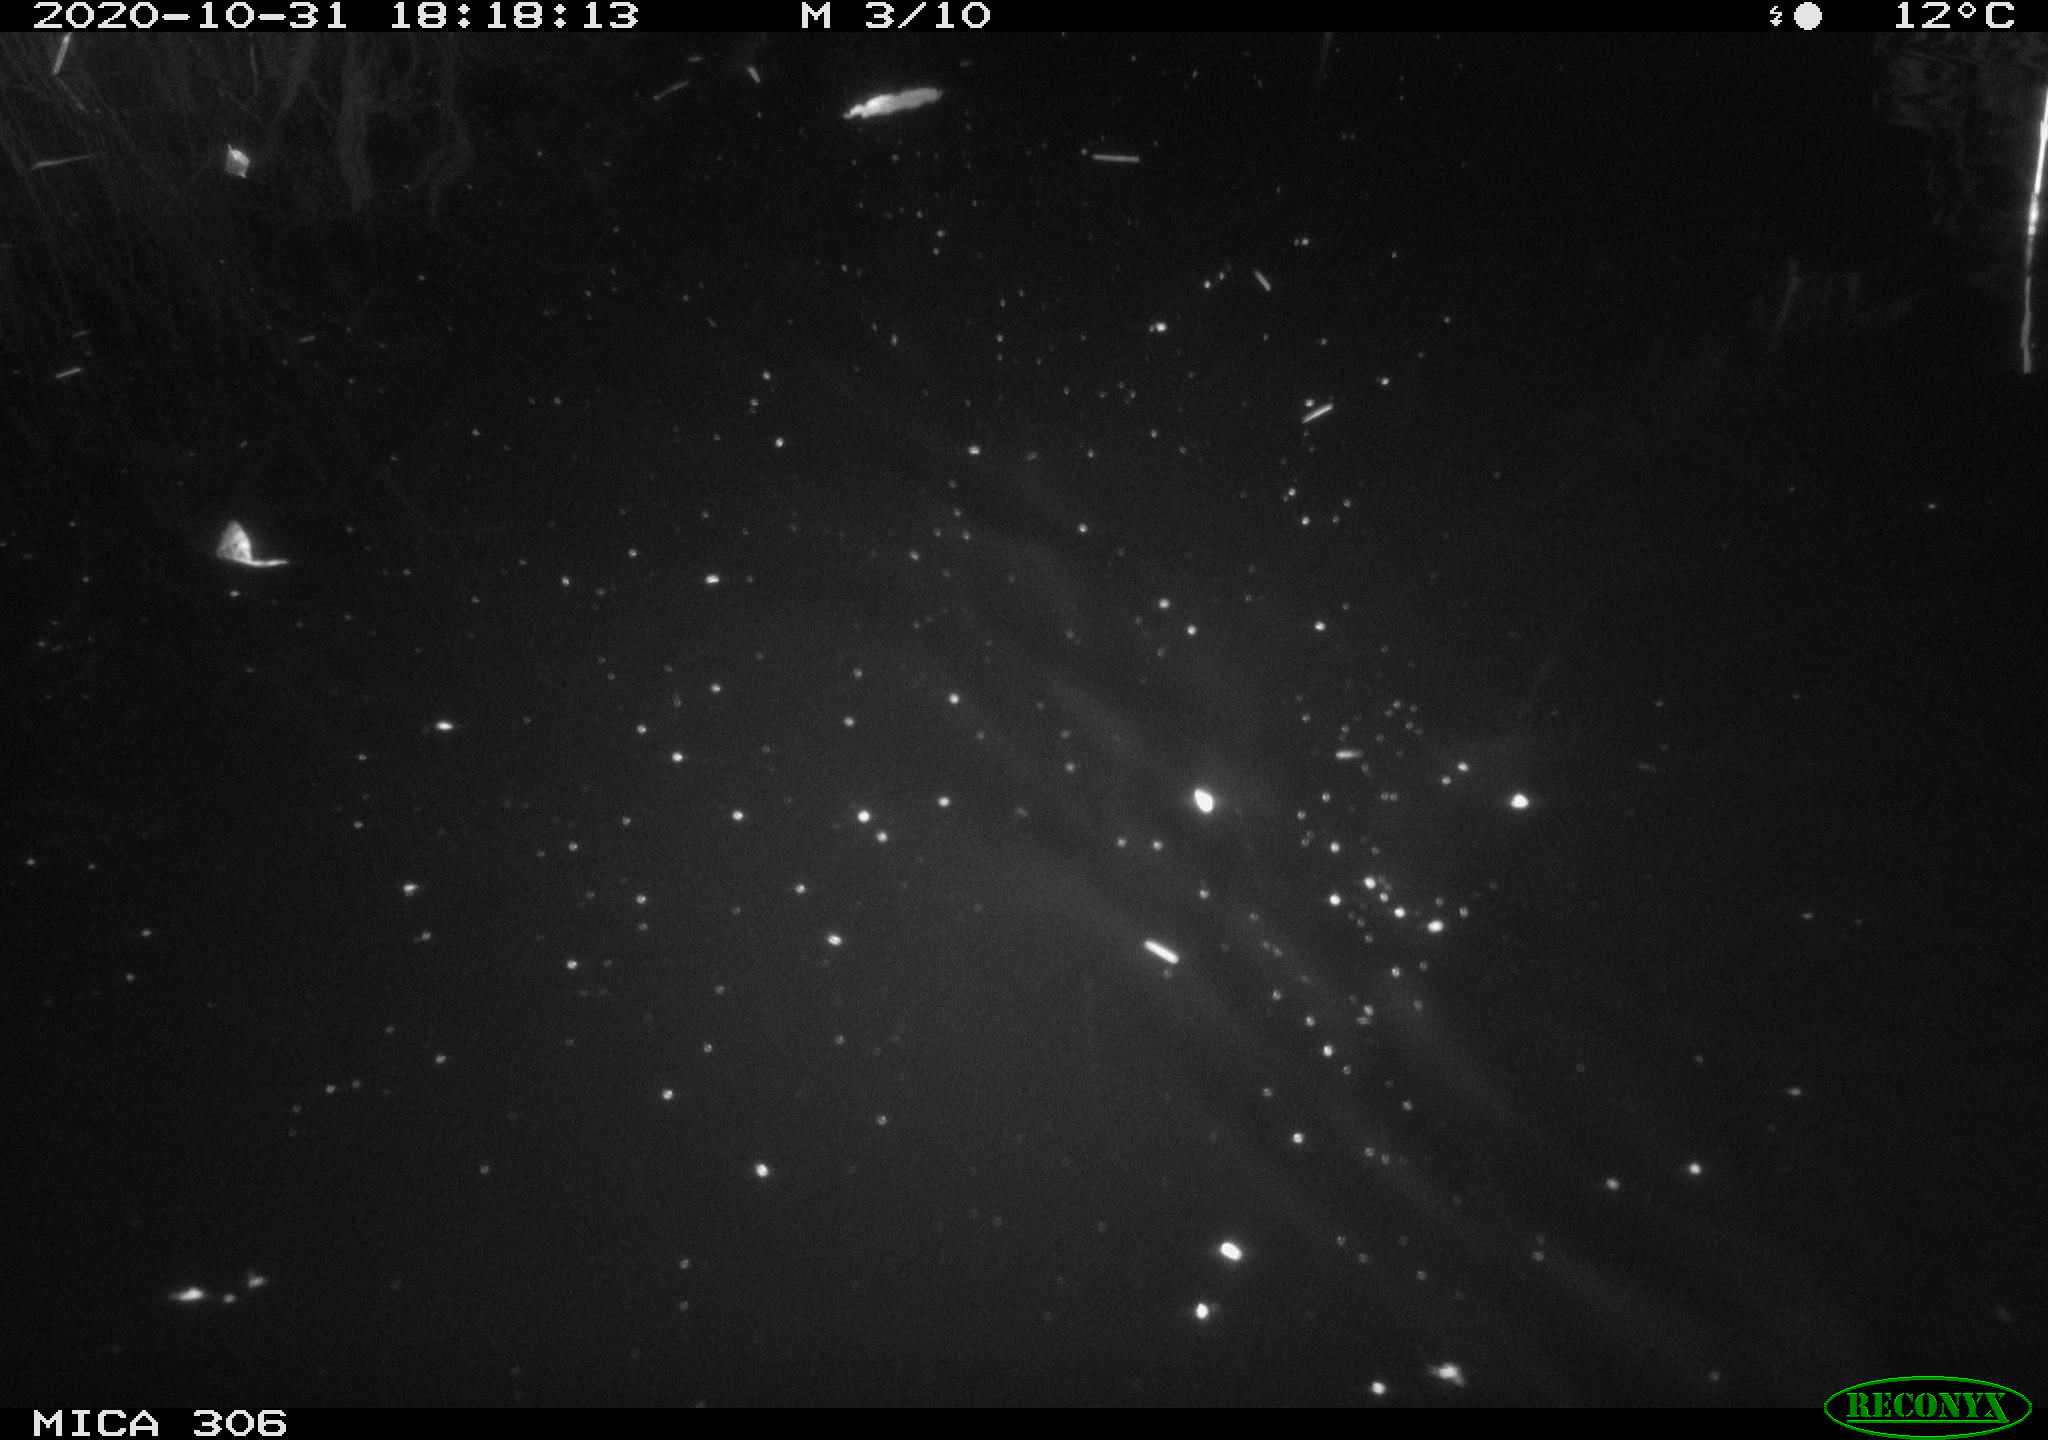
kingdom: Animalia
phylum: Chordata
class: Mammalia
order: Rodentia
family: Muridae
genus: Rattus
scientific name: Rattus norvegicus
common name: Brown rat
